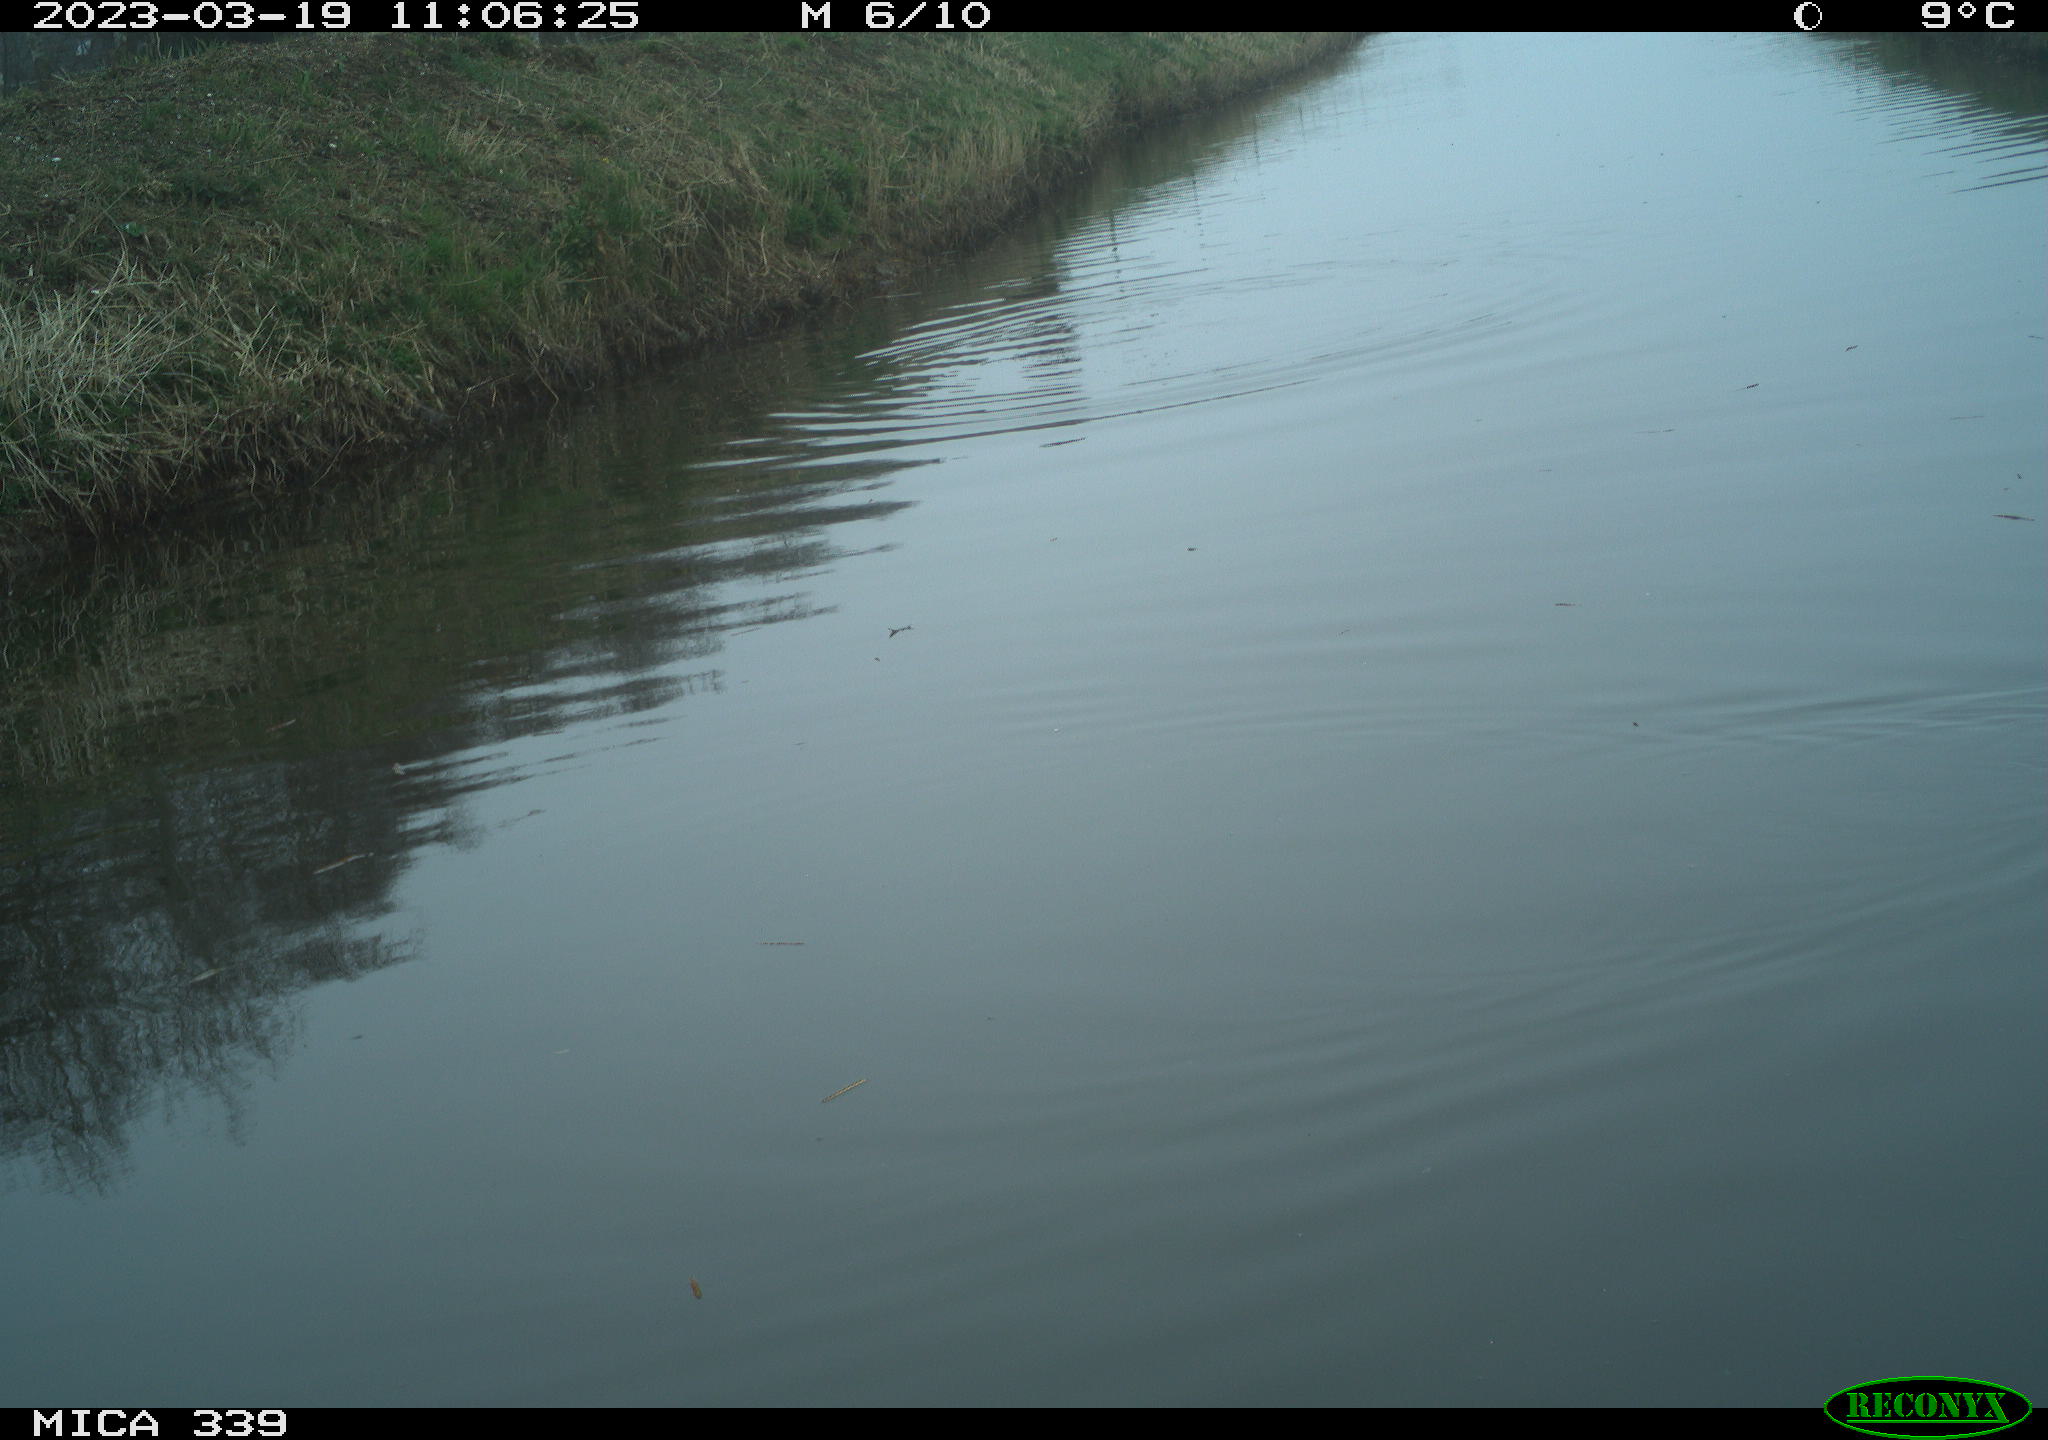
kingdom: Animalia
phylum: Chordata
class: Aves
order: Gruiformes
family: Rallidae
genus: Fulica
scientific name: Fulica atra
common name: Eurasian coot
